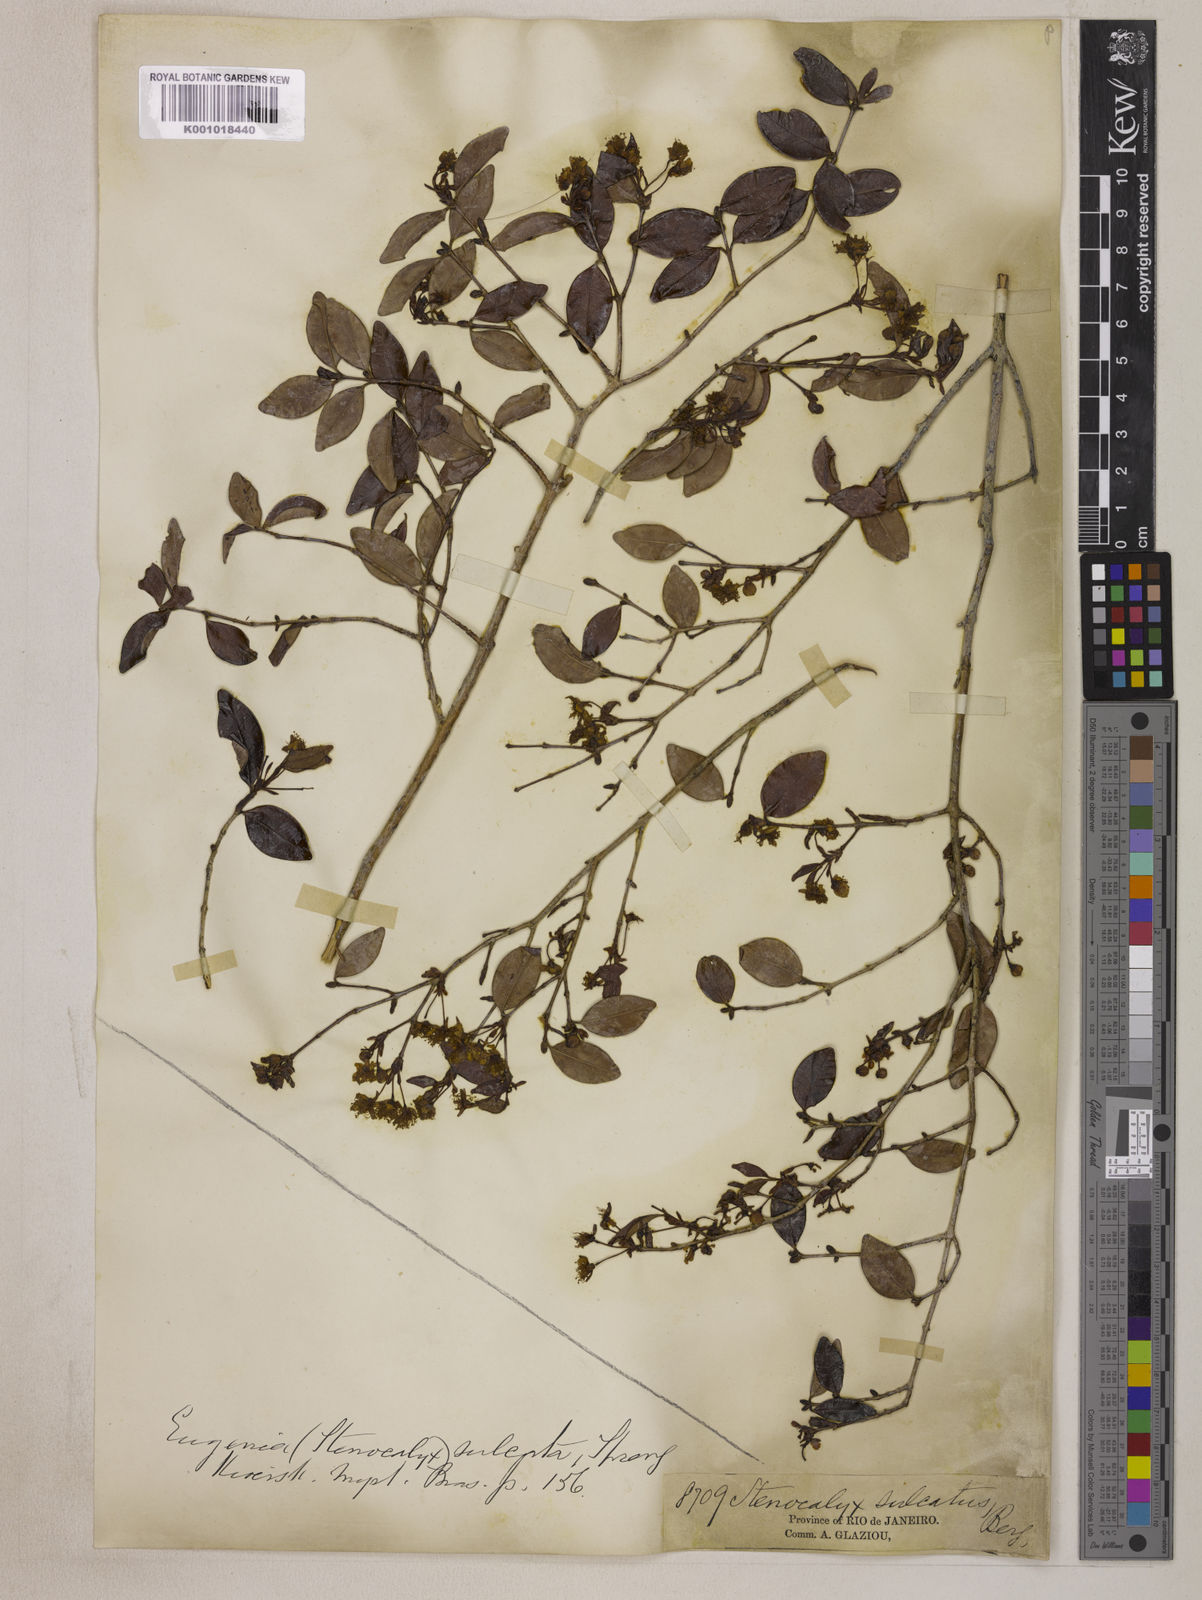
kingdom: Plantae
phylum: Tracheophyta
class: Magnoliopsida
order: Myrtales
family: Myrtaceae
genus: Eugenia
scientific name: Eugenia sulcata
